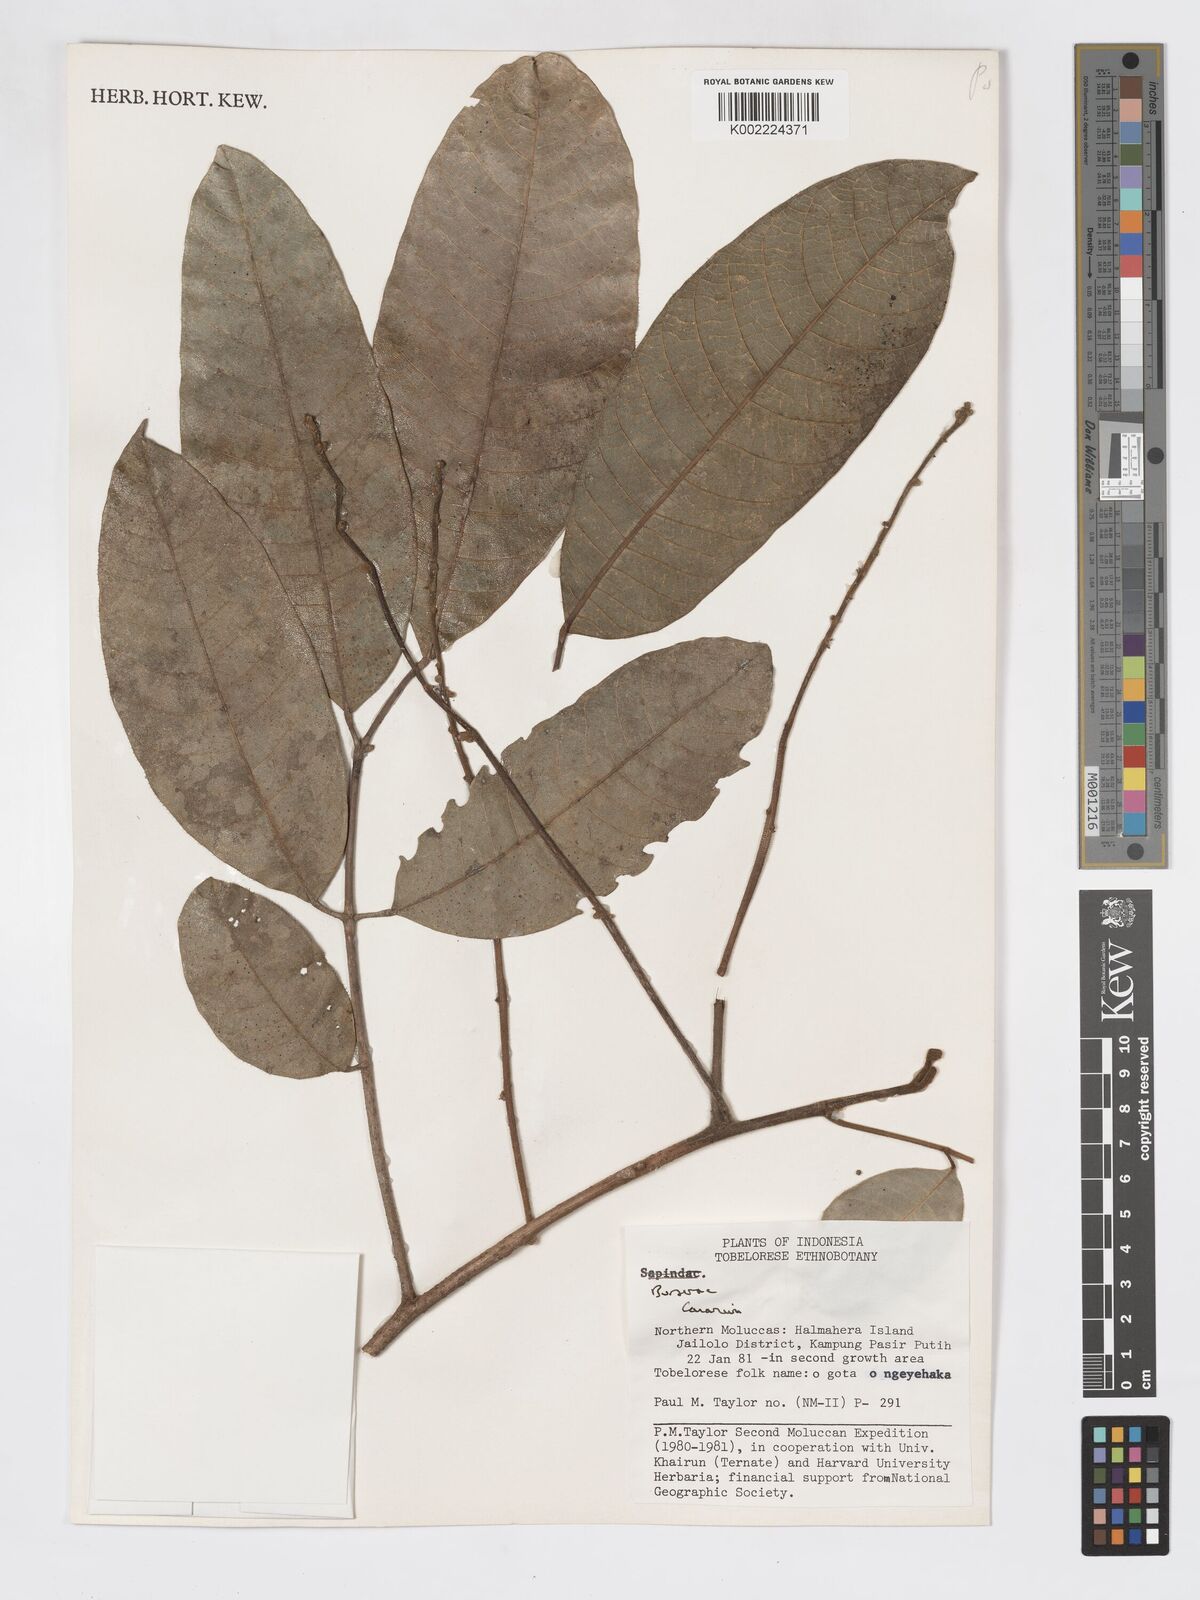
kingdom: Plantae
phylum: Tracheophyta
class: Magnoliopsida
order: Sapindales
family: Burseraceae
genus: Canarium
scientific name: Canarium
